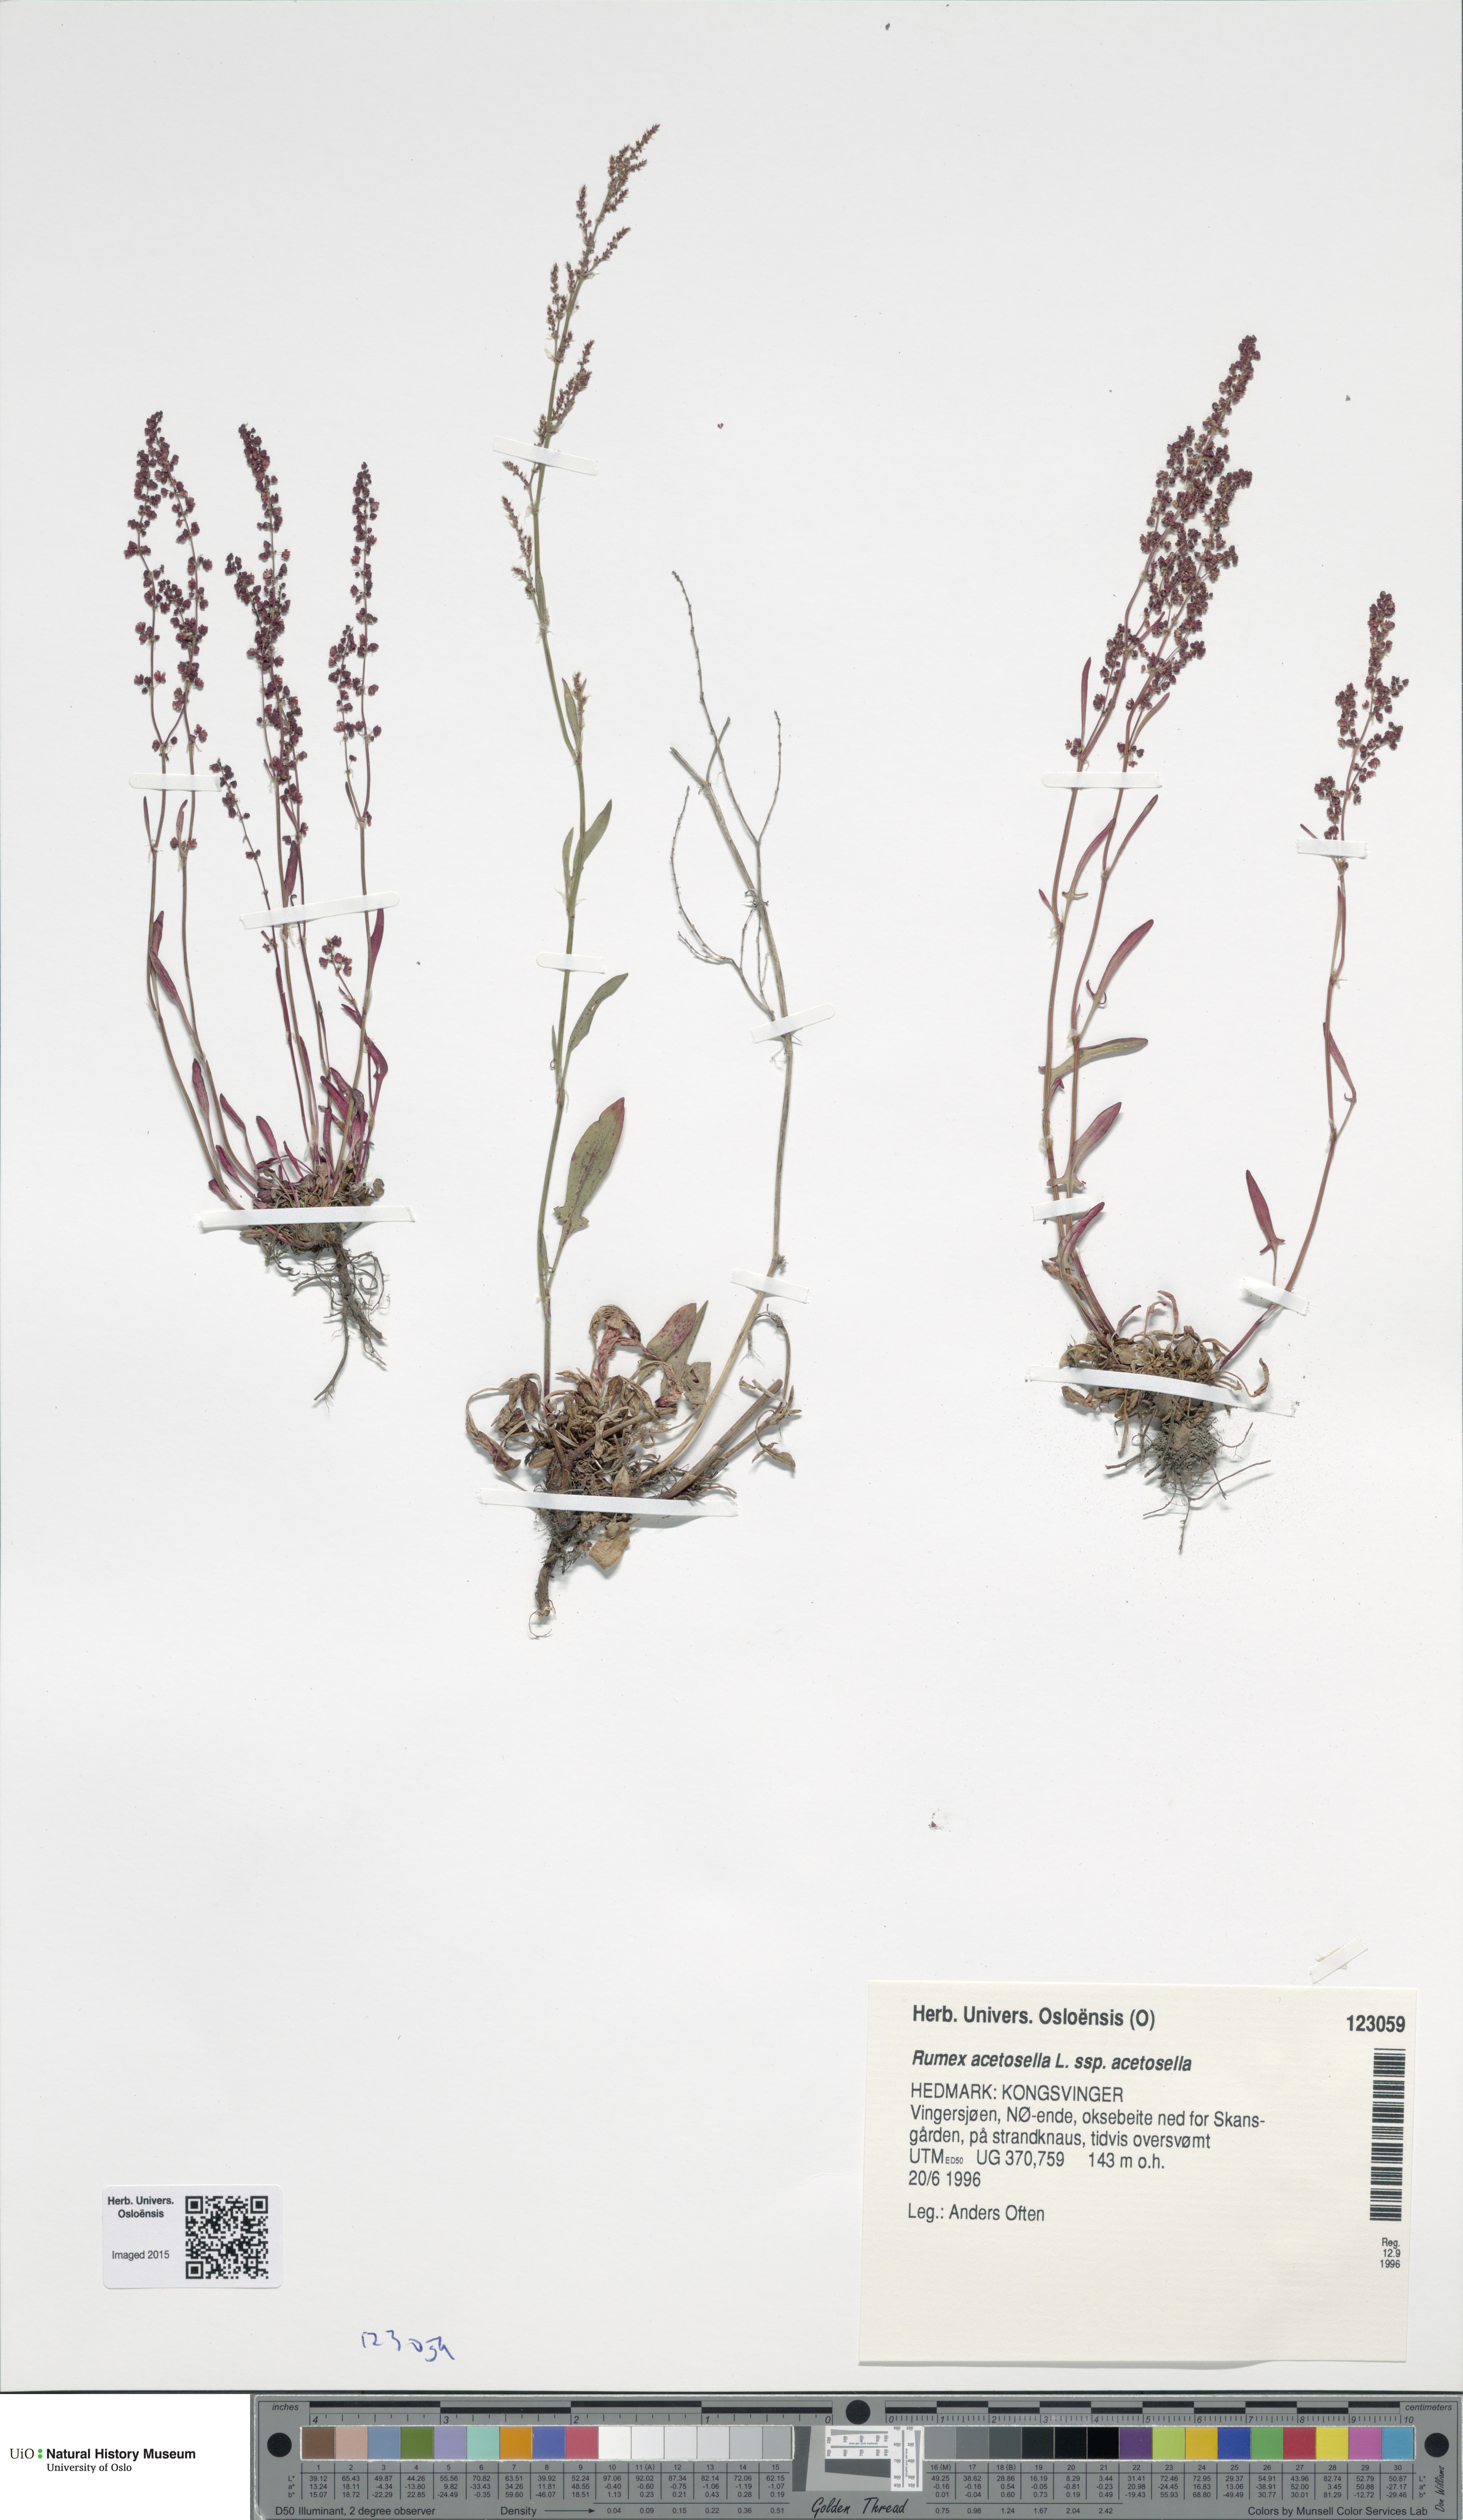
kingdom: Plantae
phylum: Tracheophyta
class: Magnoliopsida
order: Caryophyllales
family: Polygonaceae
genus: Rumex
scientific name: Rumex acetosella
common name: Common sheep sorrel
